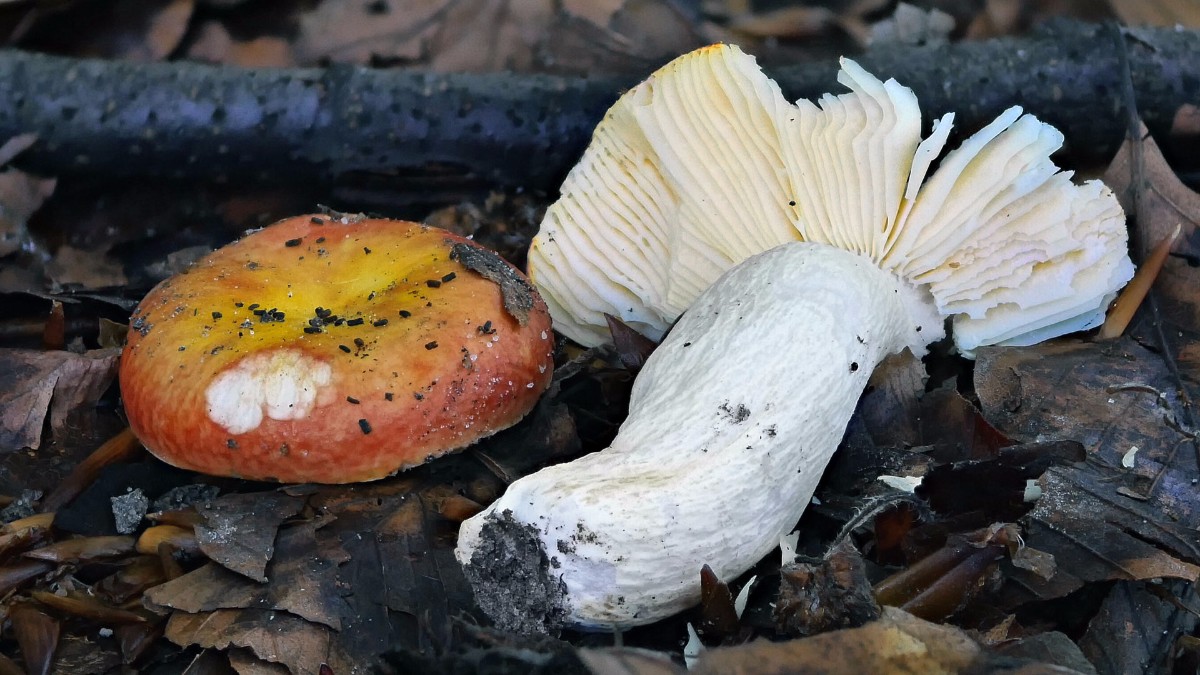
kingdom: Fungi
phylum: Basidiomycota
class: Agaricomycetes
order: Russulales
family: Russulaceae
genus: Russula
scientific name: Russula aurea
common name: gylden skørhat
